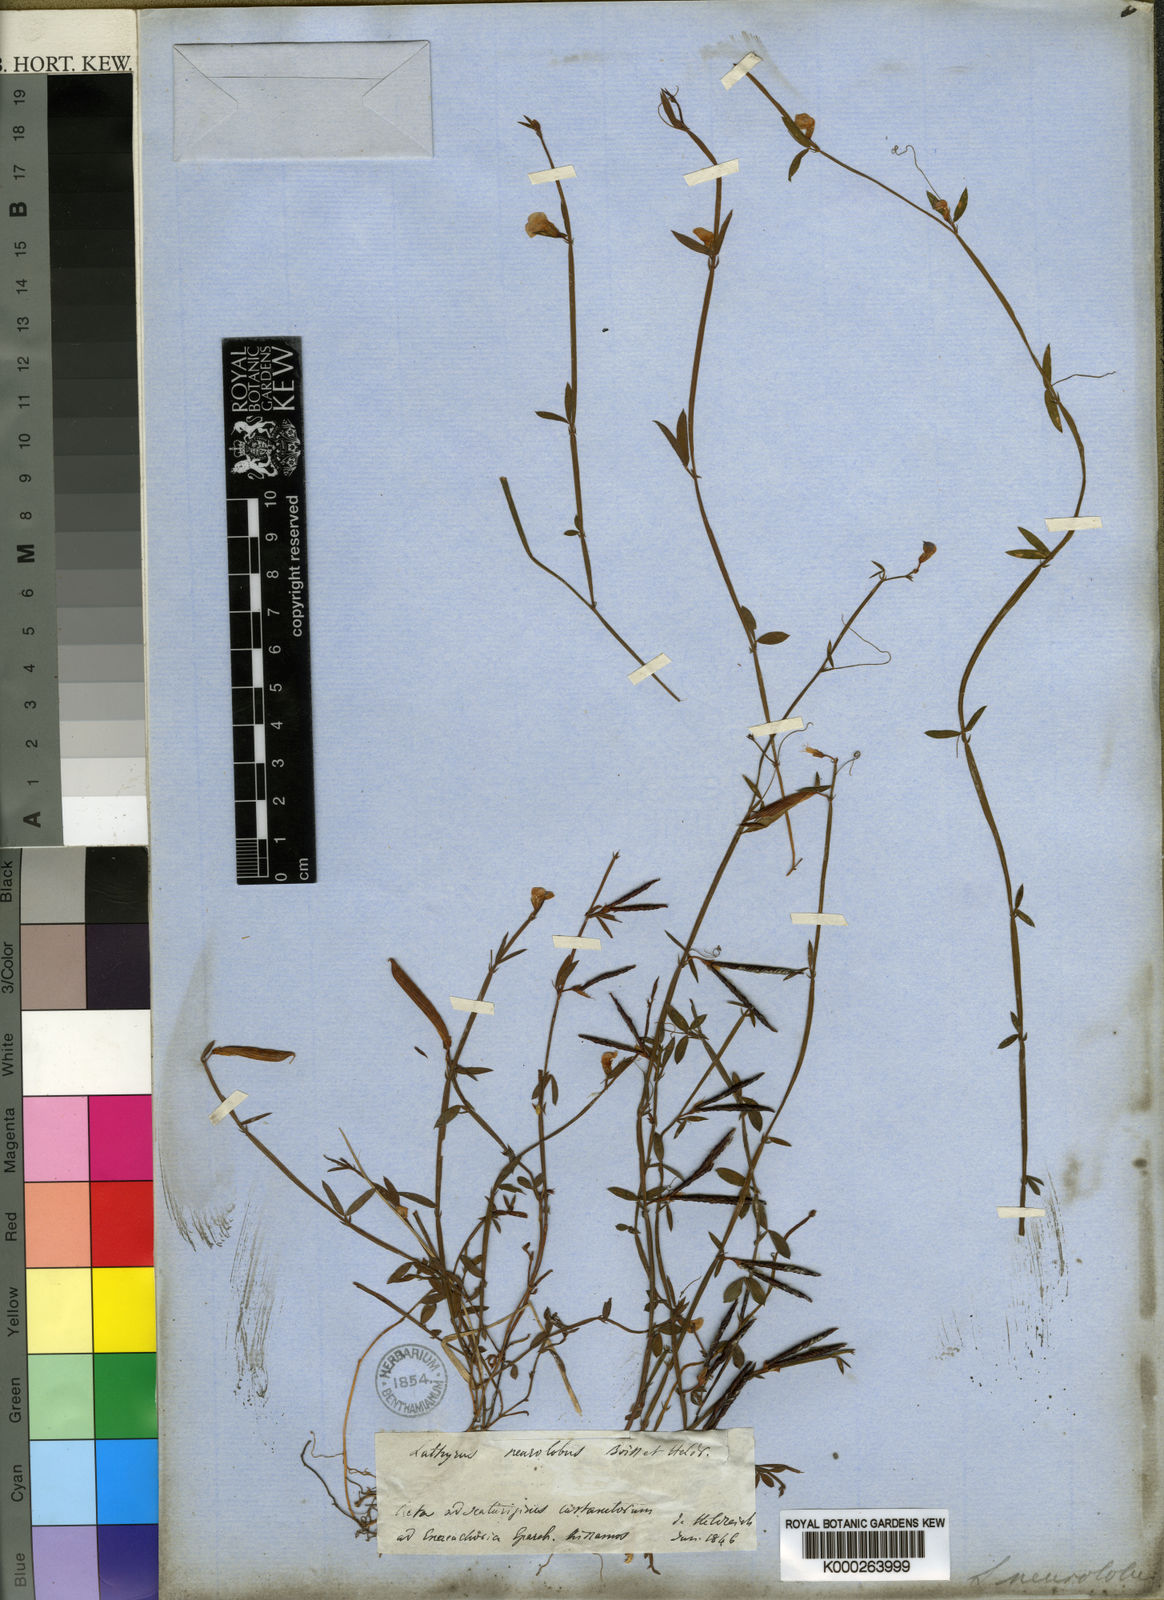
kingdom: Plantae
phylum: Tracheophyta
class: Magnoliopsida
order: Fabales
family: Fabaceae
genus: Lathyrus
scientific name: Lathyrus neurolobus
